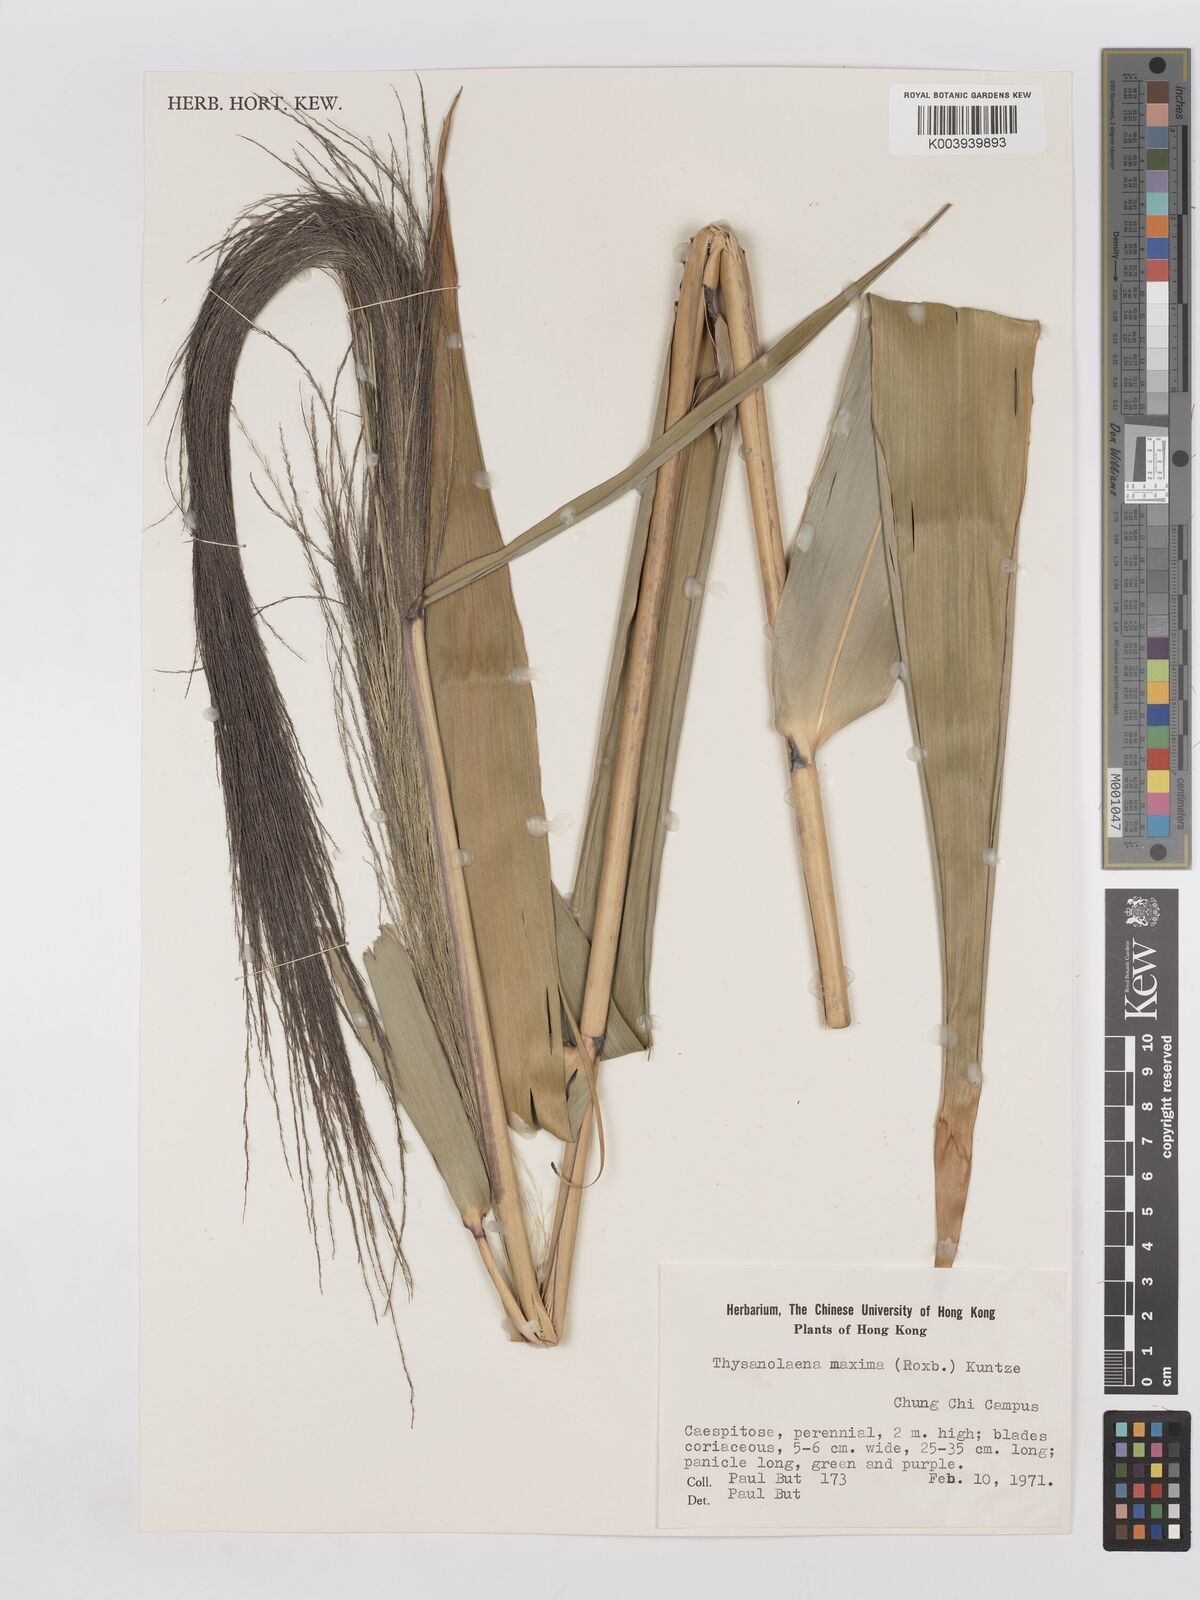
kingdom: Plantae
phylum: Tracheophyta
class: Liliopsida
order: Poales
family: Poaceae
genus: Thysanolaena
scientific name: Thysanolaena latifolia
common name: Tiger grass
